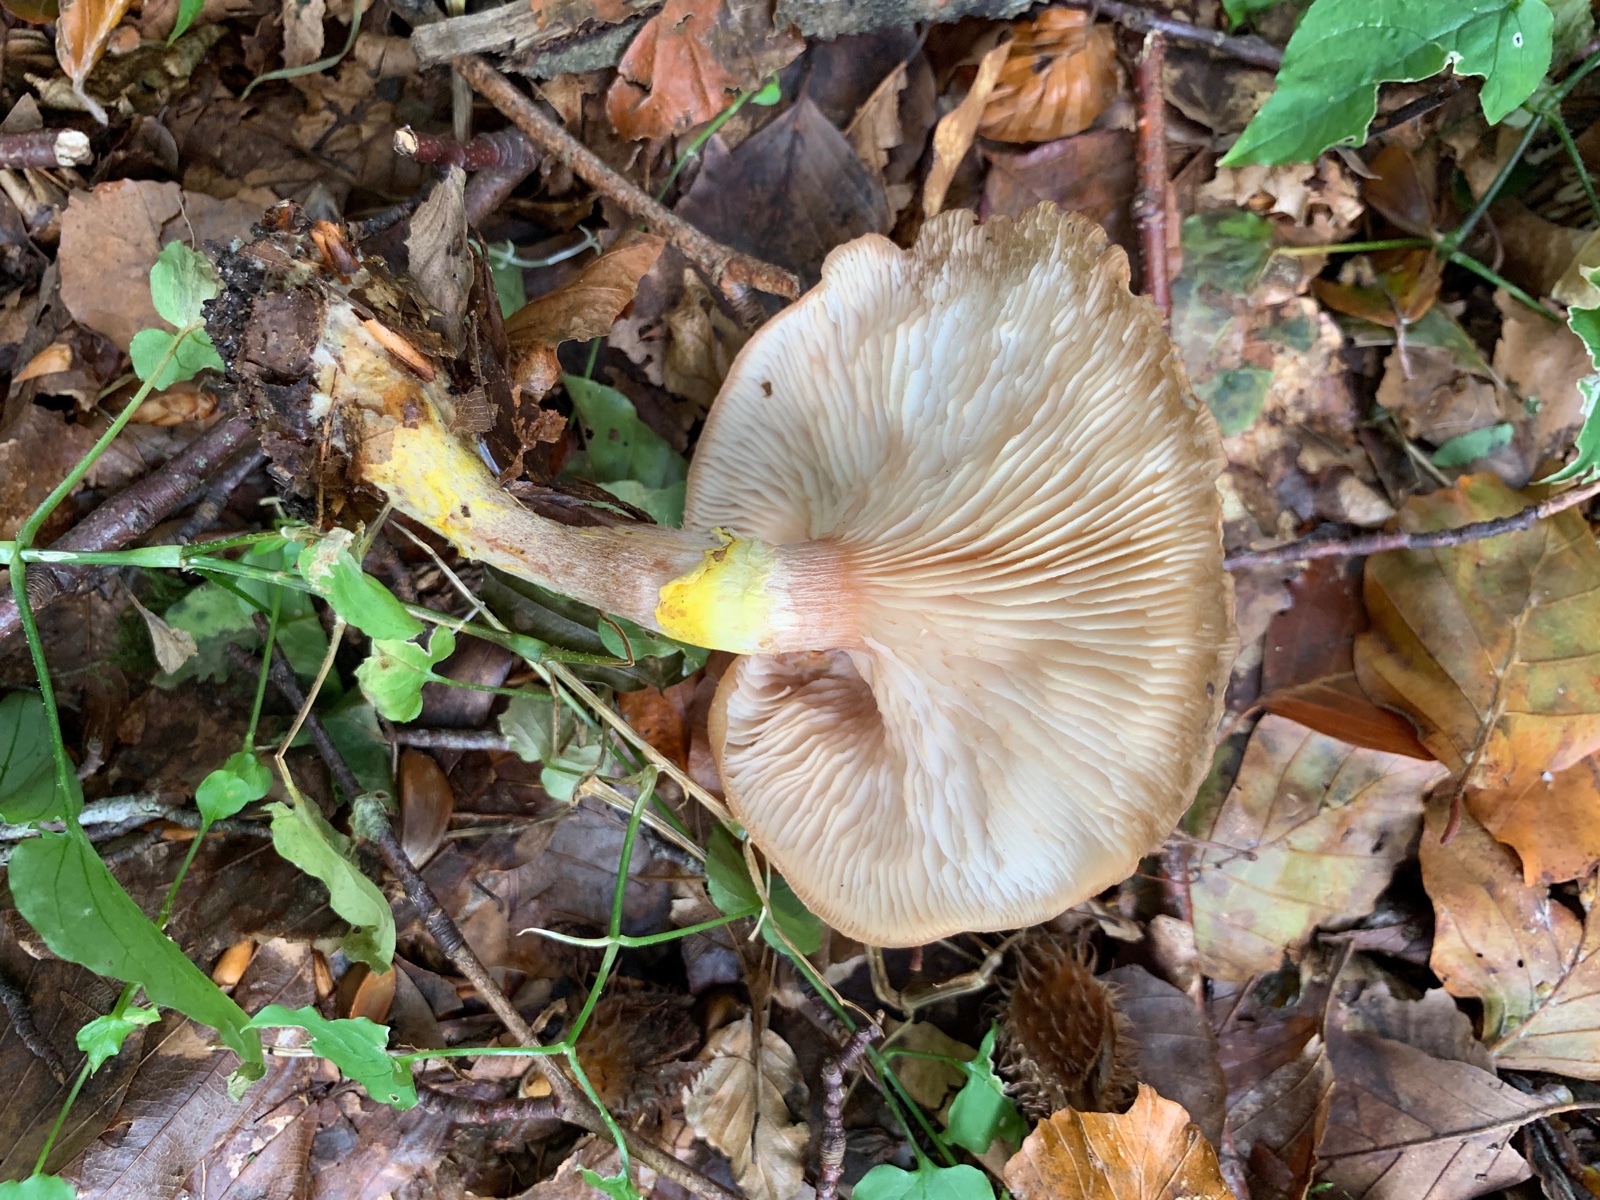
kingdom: Fungi
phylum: Basidiomycota
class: Agaricomycetes
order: Agaricales
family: Physalacriaceae
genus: Armillaria
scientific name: Armillaria mellea
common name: ægte honningsvamp
